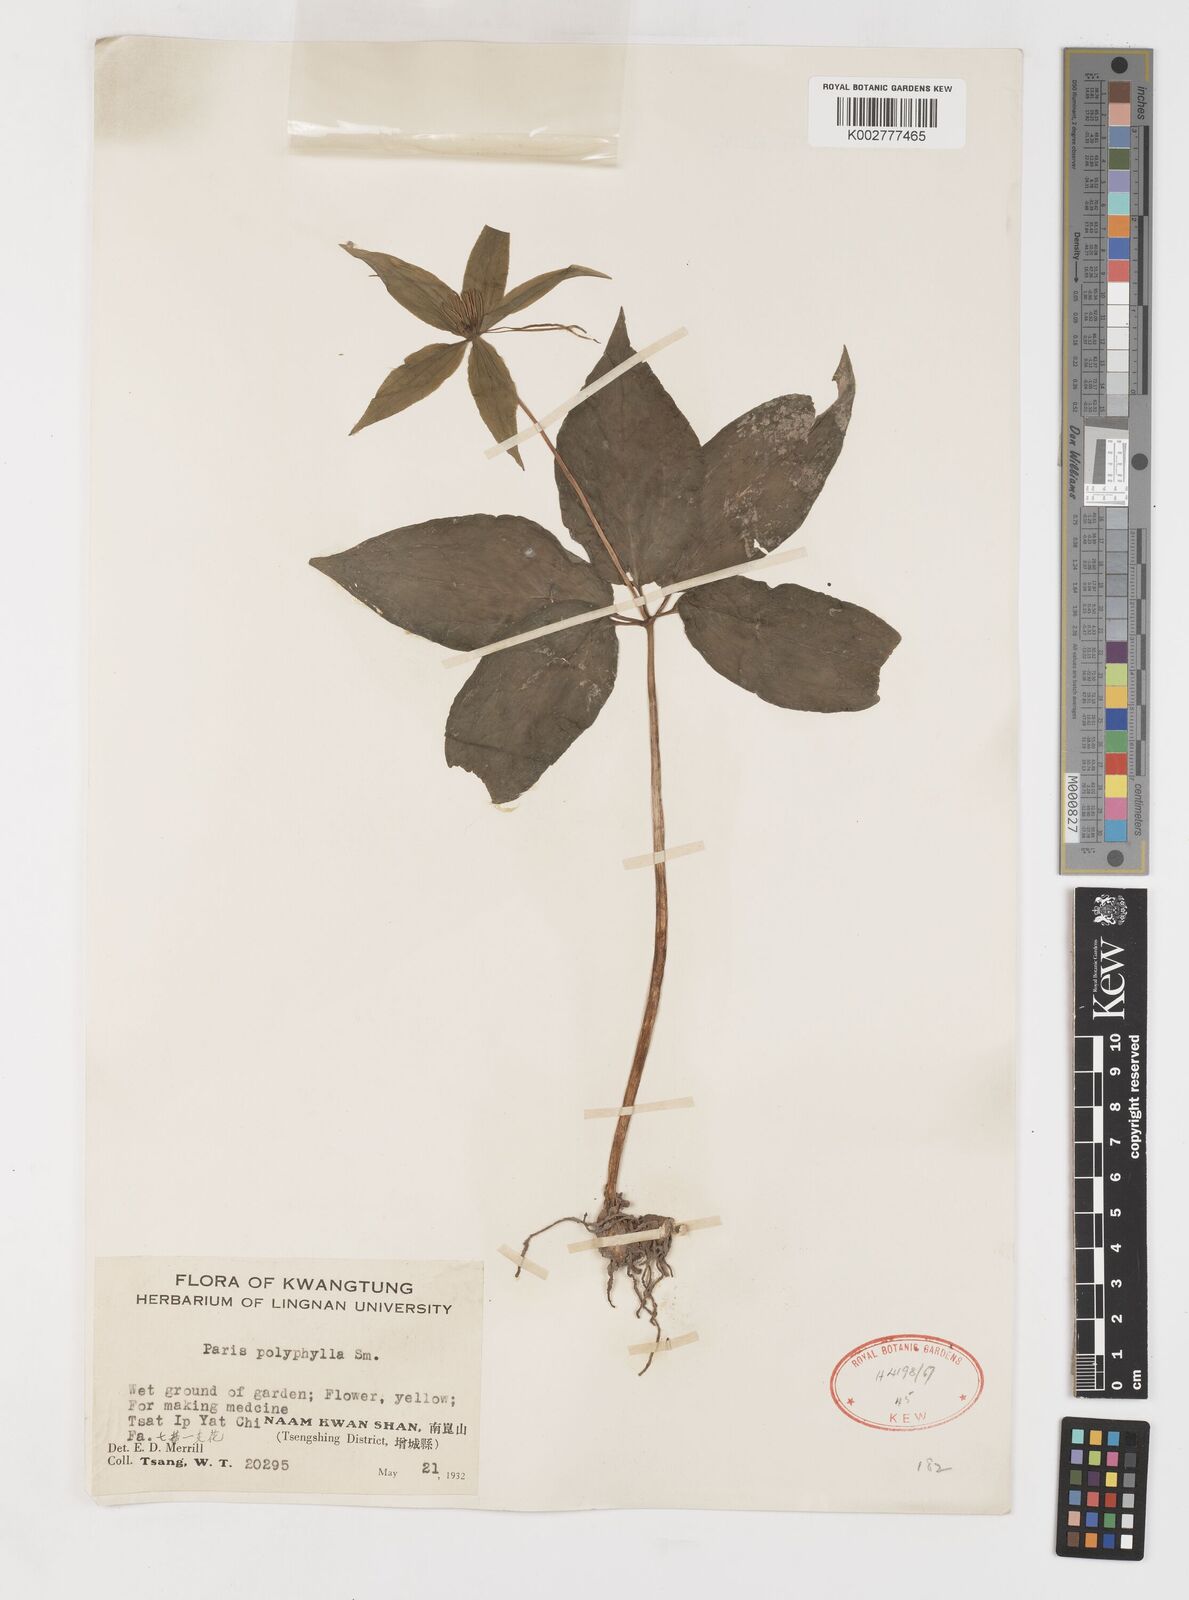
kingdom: Plantae
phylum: Tracheophyta
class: Liliopsida
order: Liliales
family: Melanthiaceae
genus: Paris
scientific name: Paris polyphylla
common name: Love apple
